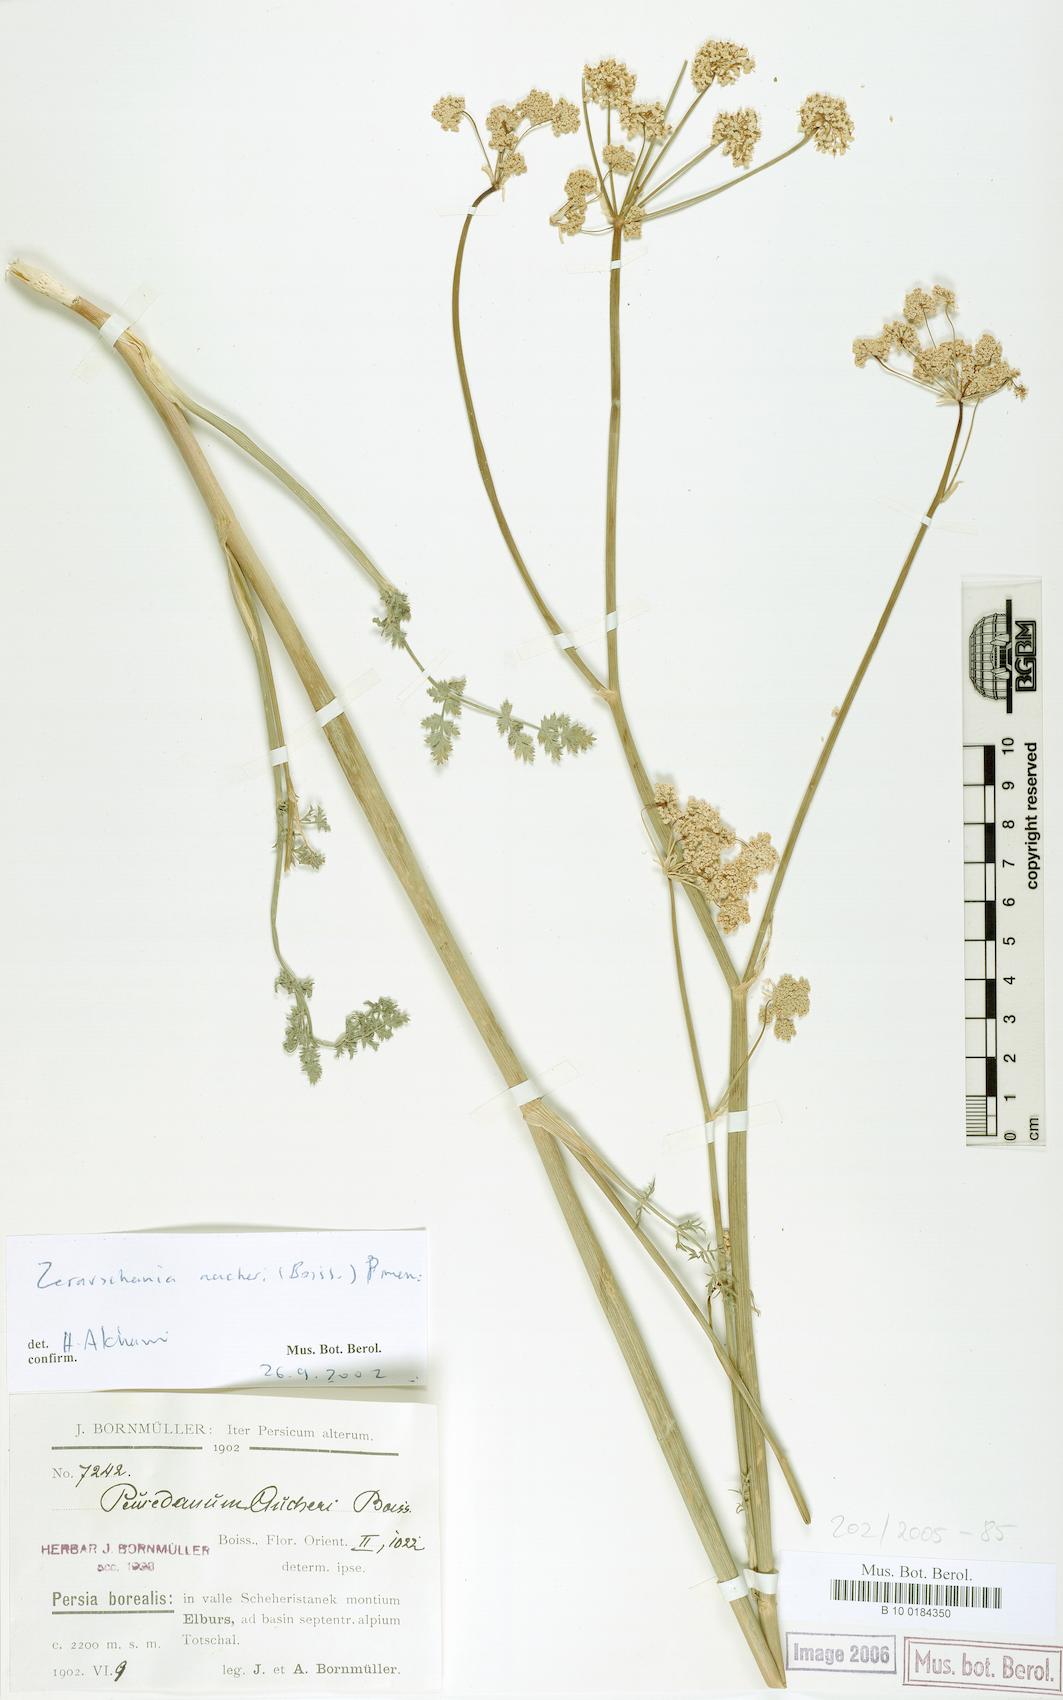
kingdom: Plantae
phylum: Tracheophyta
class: Magnoliopsida
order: Apiales
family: Apiaceae
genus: Zeravschania
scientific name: Zeravschania aucheri
